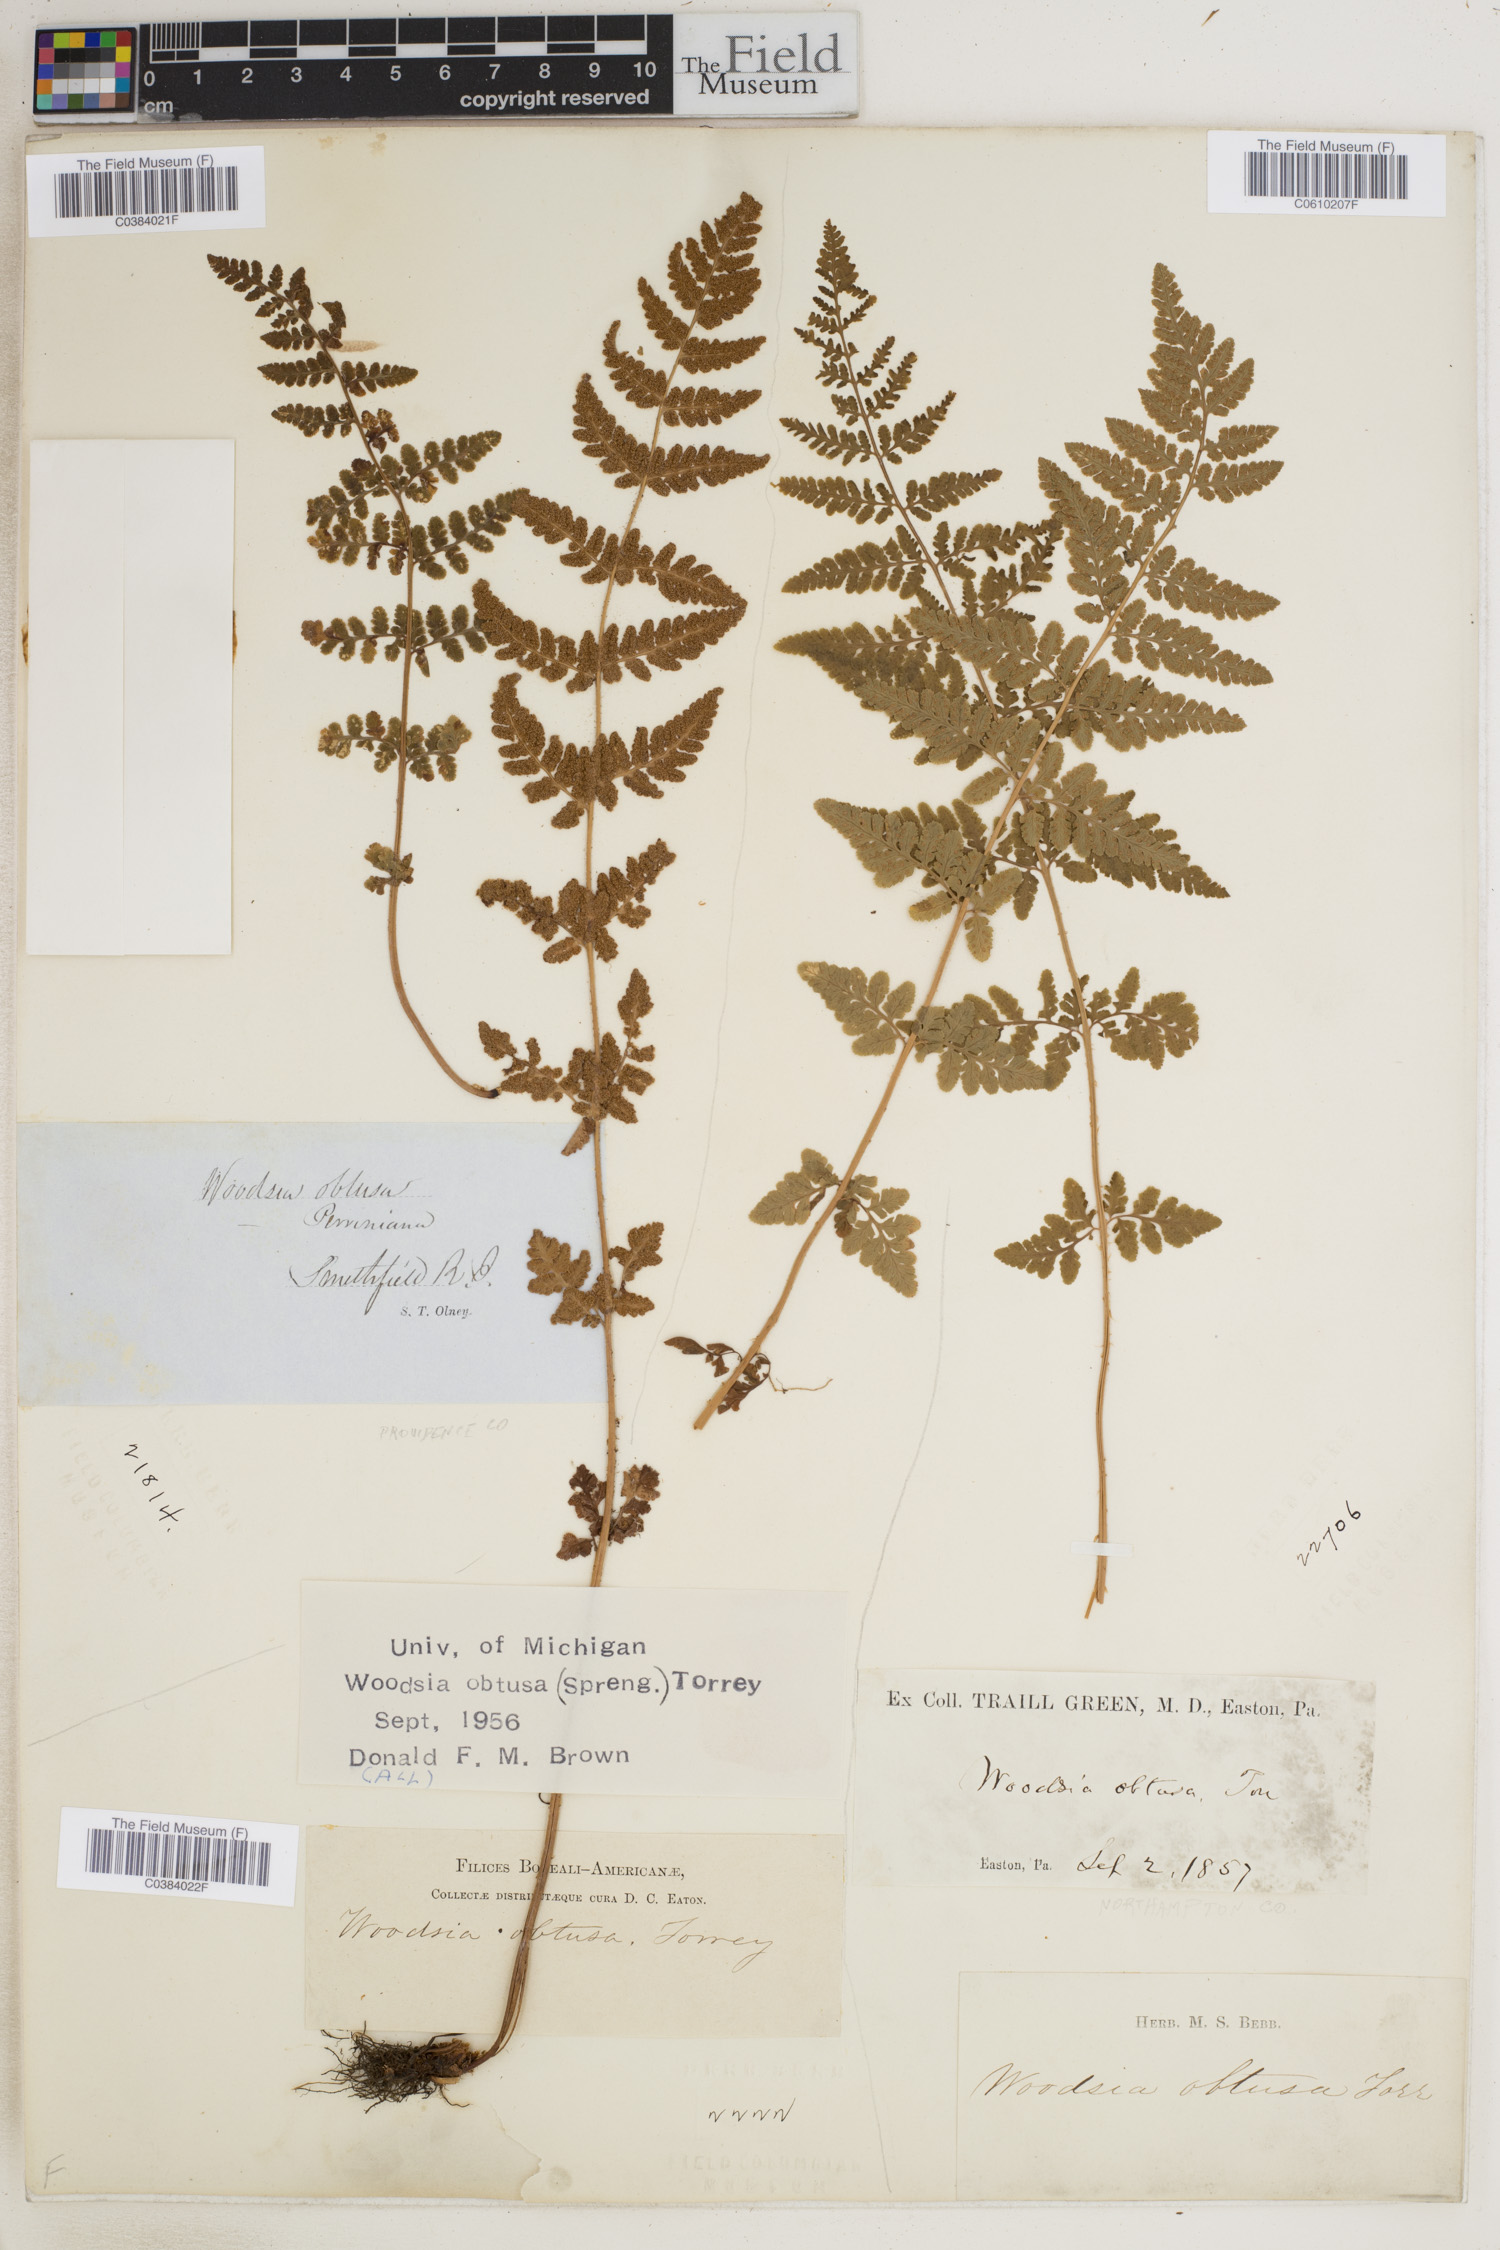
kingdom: Plantae
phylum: Tracheophyta
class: Polypodiopsida
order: Polypodiales
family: Woodsiaceae
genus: Physematium
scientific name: Physematium obtusum
